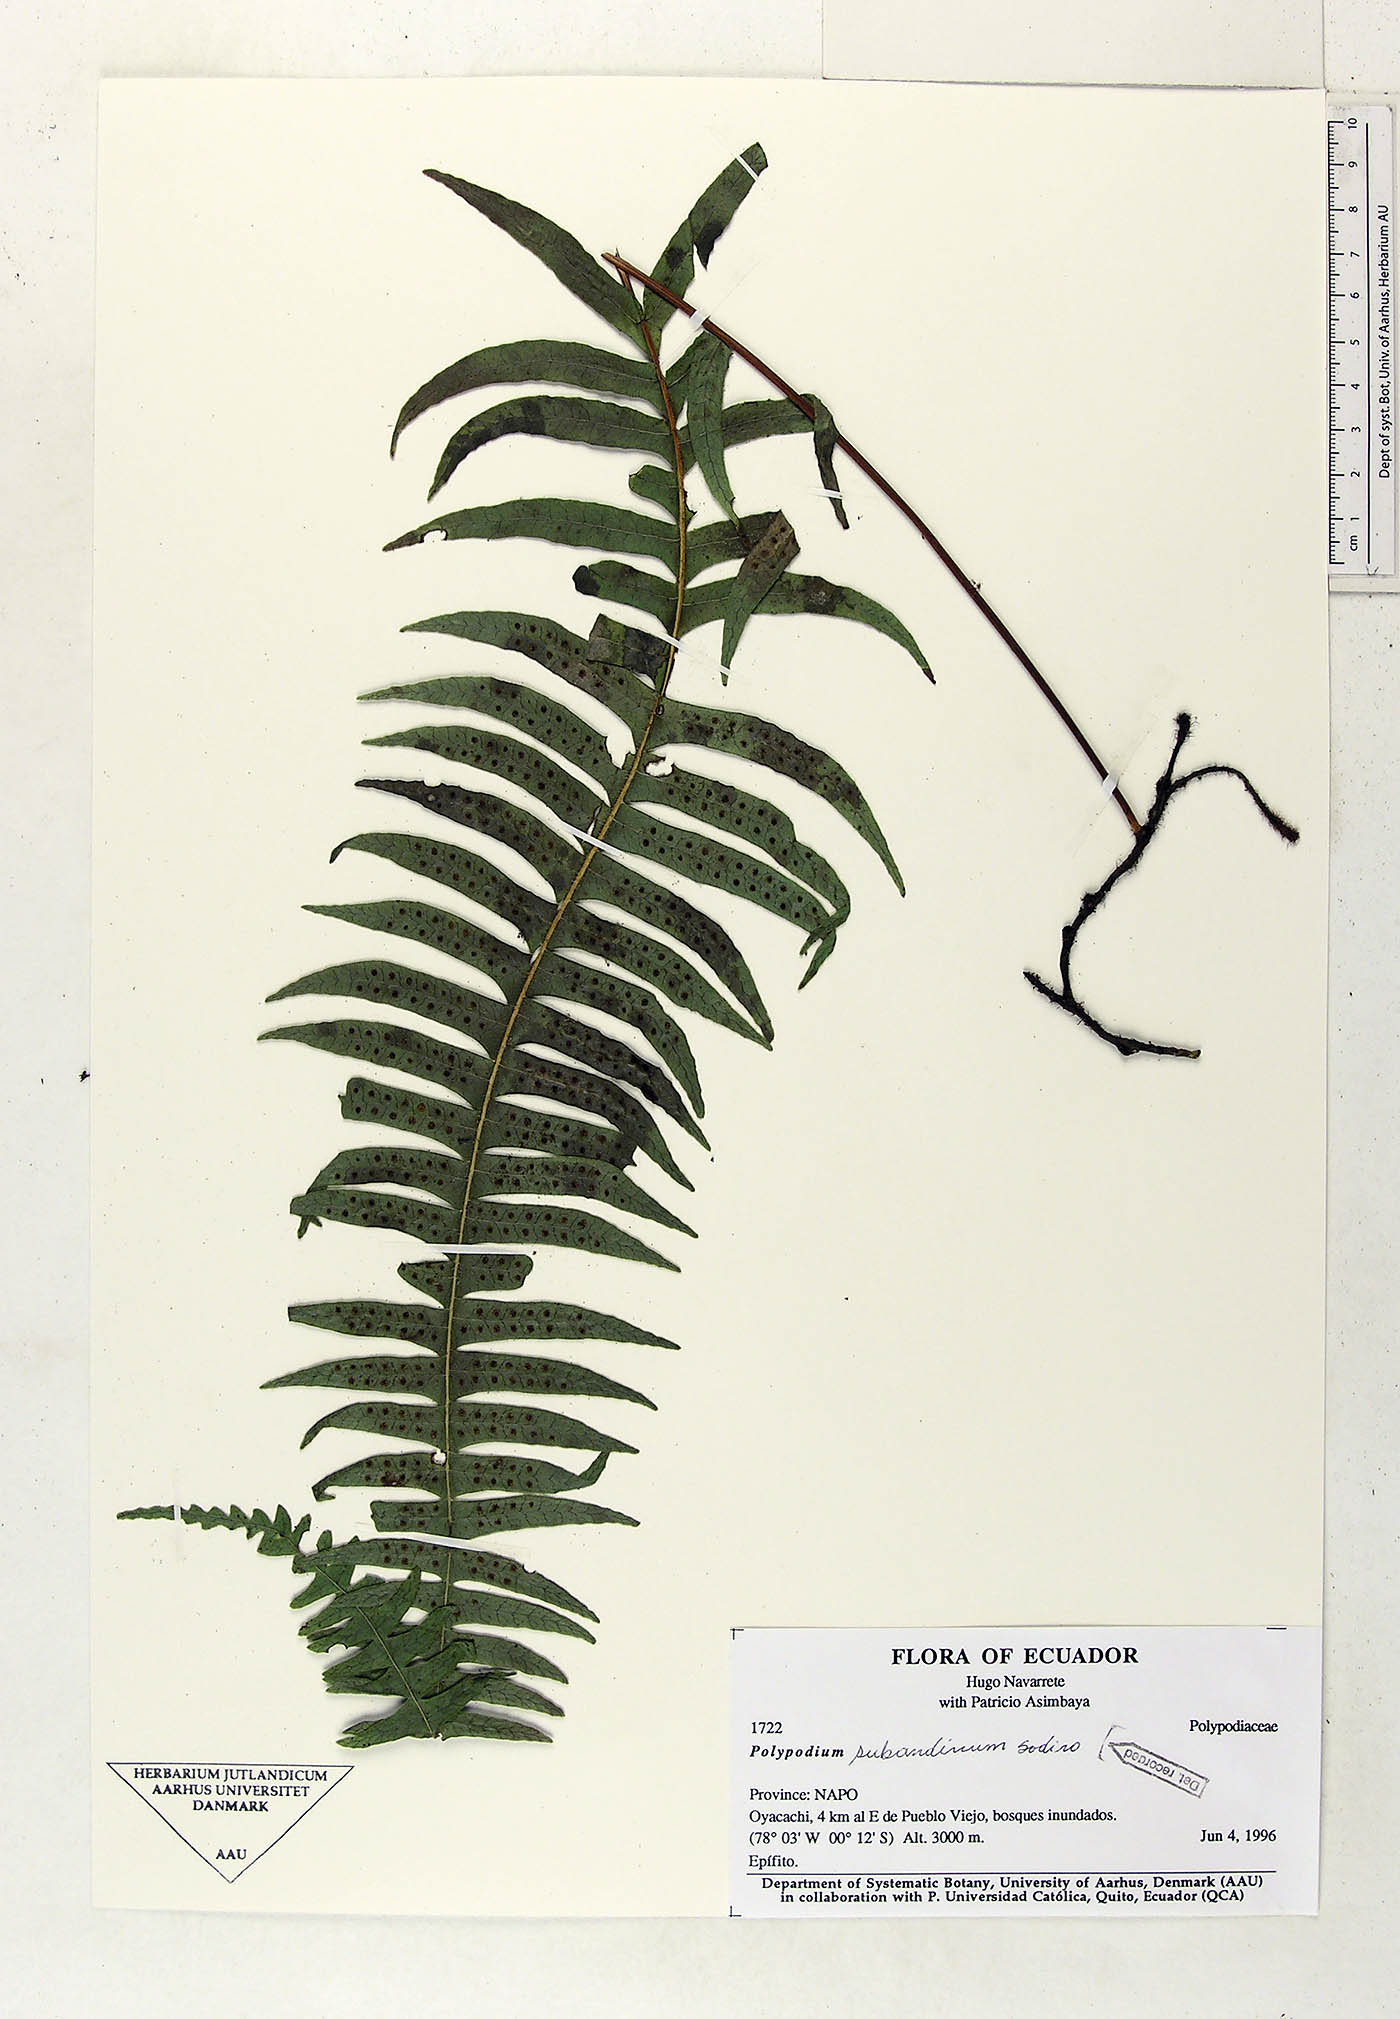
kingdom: Plantae
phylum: Tracheophyta
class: Polypodiopsida
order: Polypodiales
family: Polypodiaceae
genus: Serpocaulon
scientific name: Serpocaulon subandinum
